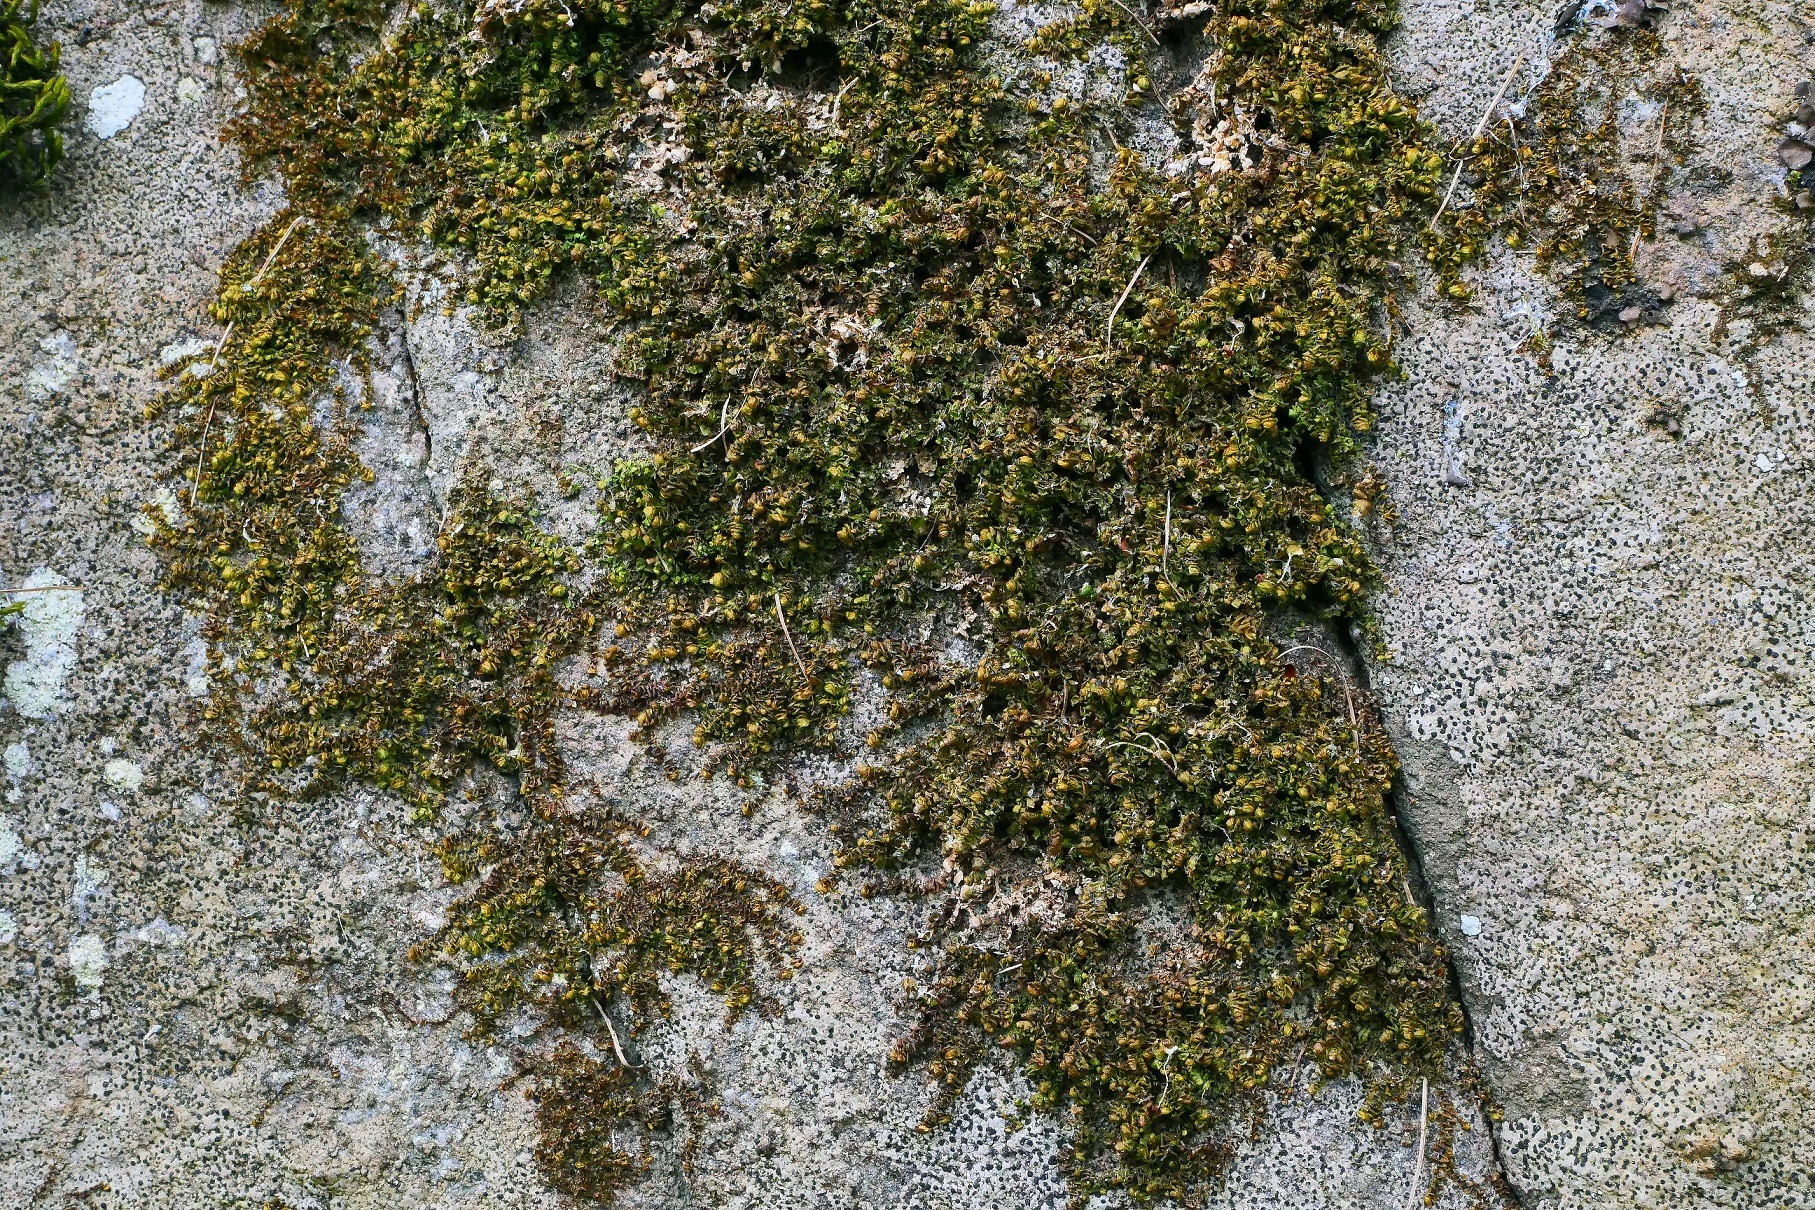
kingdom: Plantae
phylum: Marchantiophyta
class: Jungermanniopsida
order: Jungermanniales
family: Scapaniaceae
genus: Scapania
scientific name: Scapania compacta
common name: Tæt tveblad
